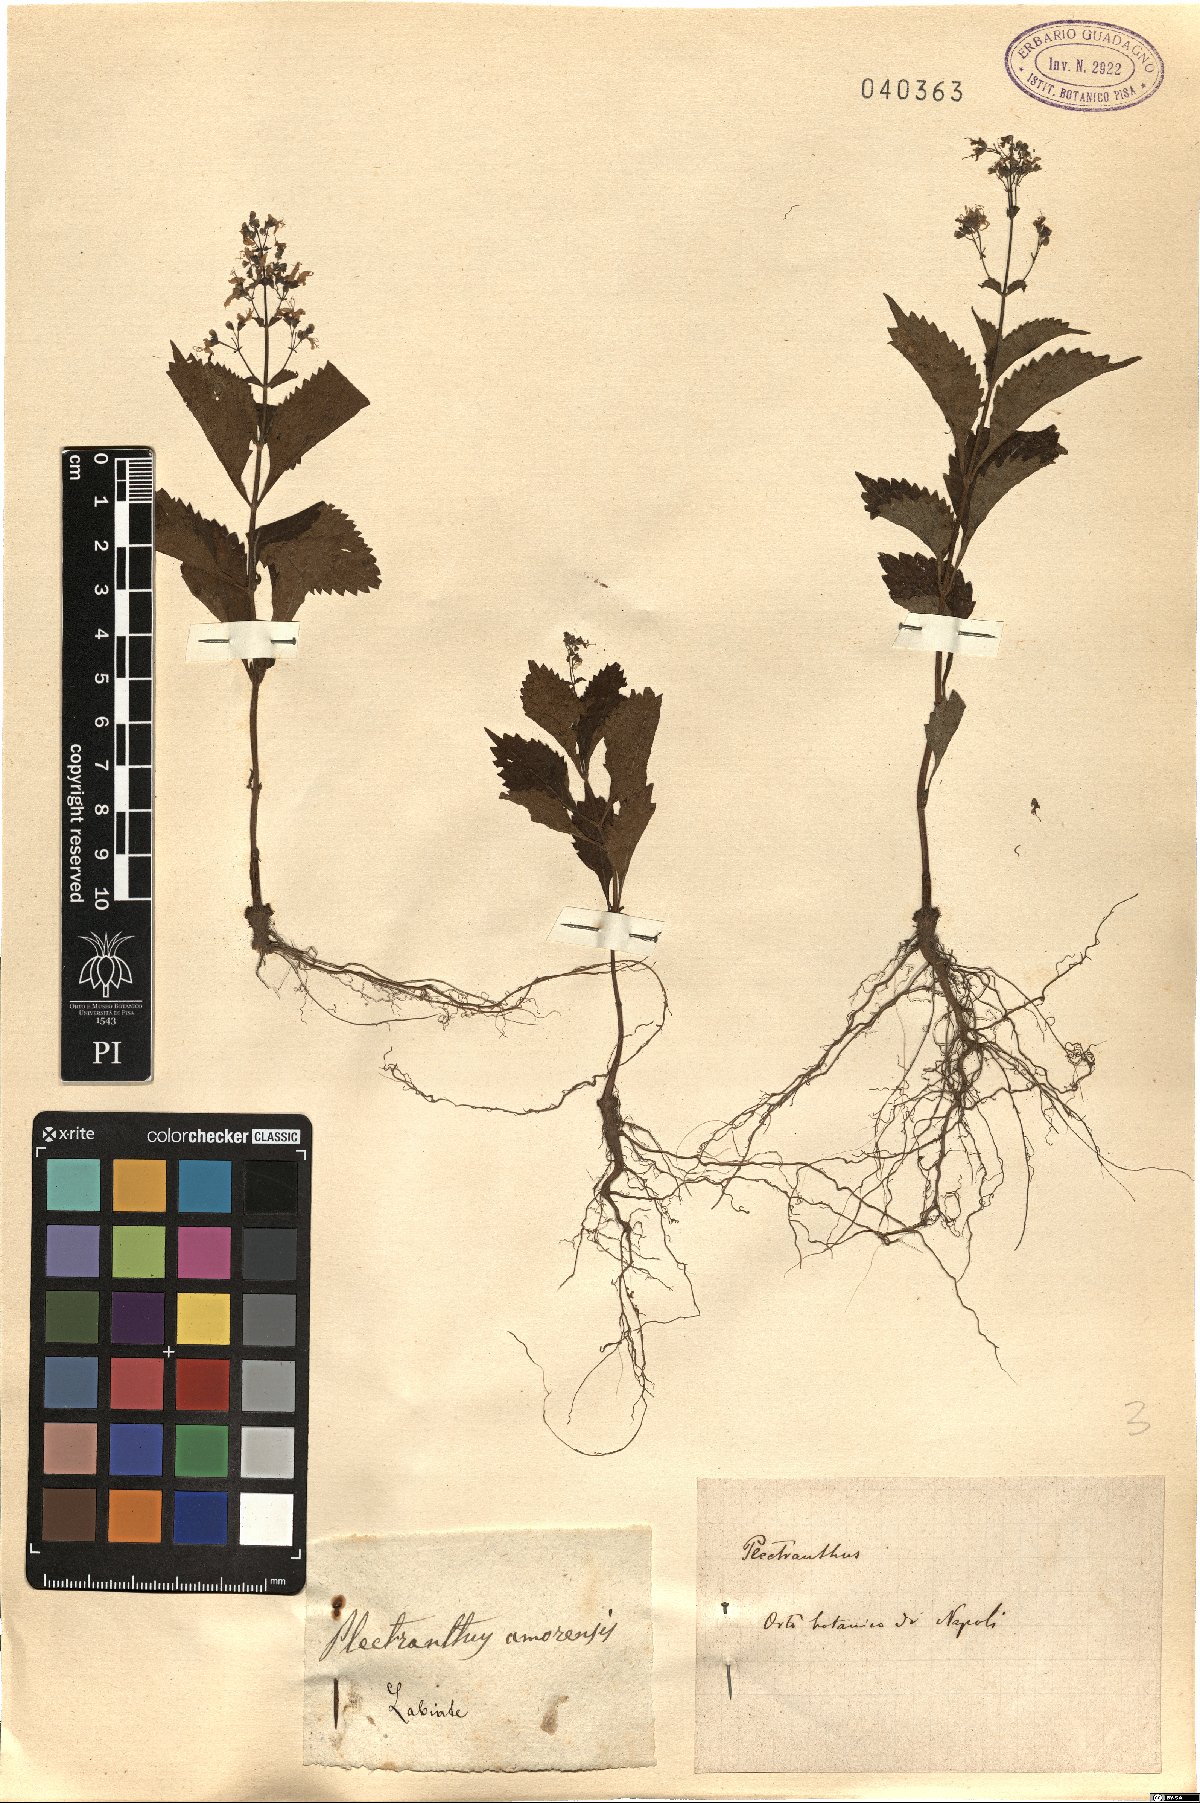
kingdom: Plantae
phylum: Tracheophyta
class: Magnoliopsida
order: Lamiales
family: Lamiaceae
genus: Coleus
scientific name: Coleus amoenus
